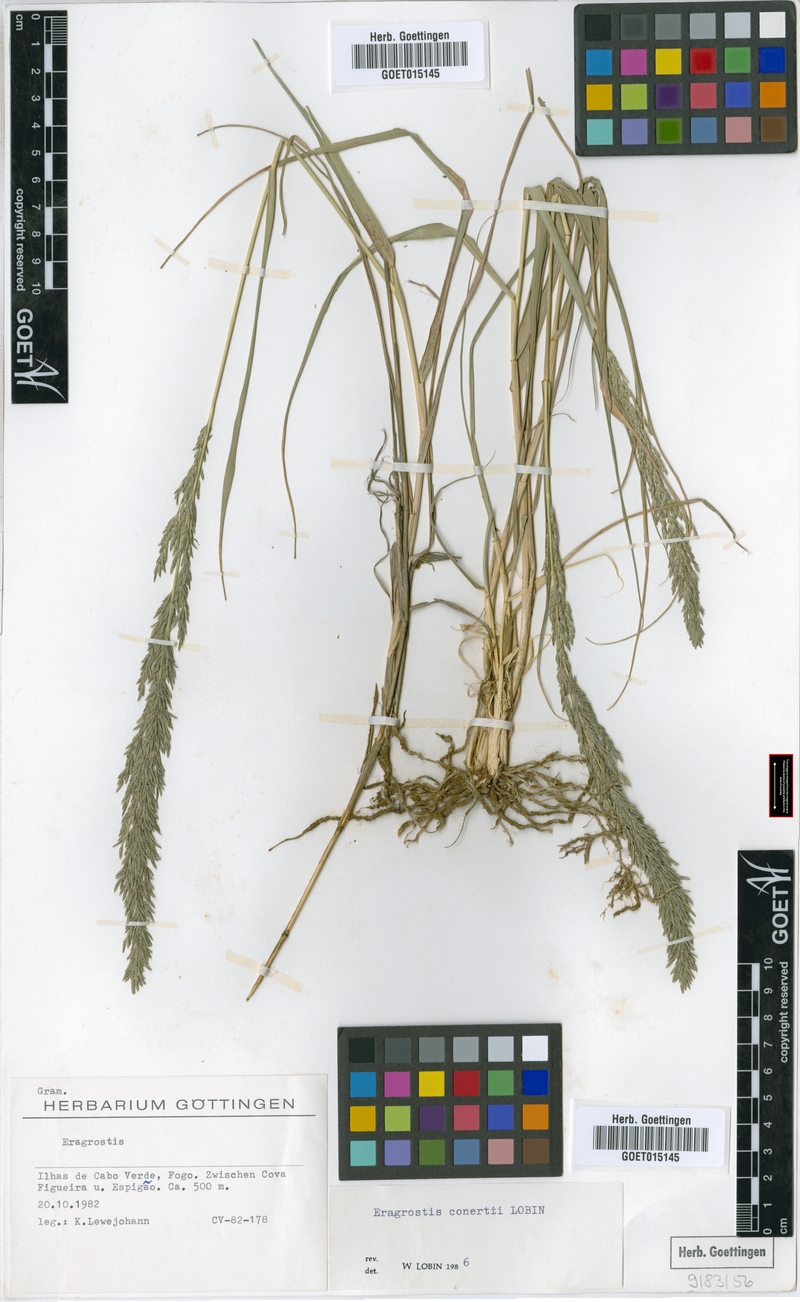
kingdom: Plantae
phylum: Tracheophyta
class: Liliopsida
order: Poales
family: Poaceae
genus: Eragrostis
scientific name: Eragrostis conertii
